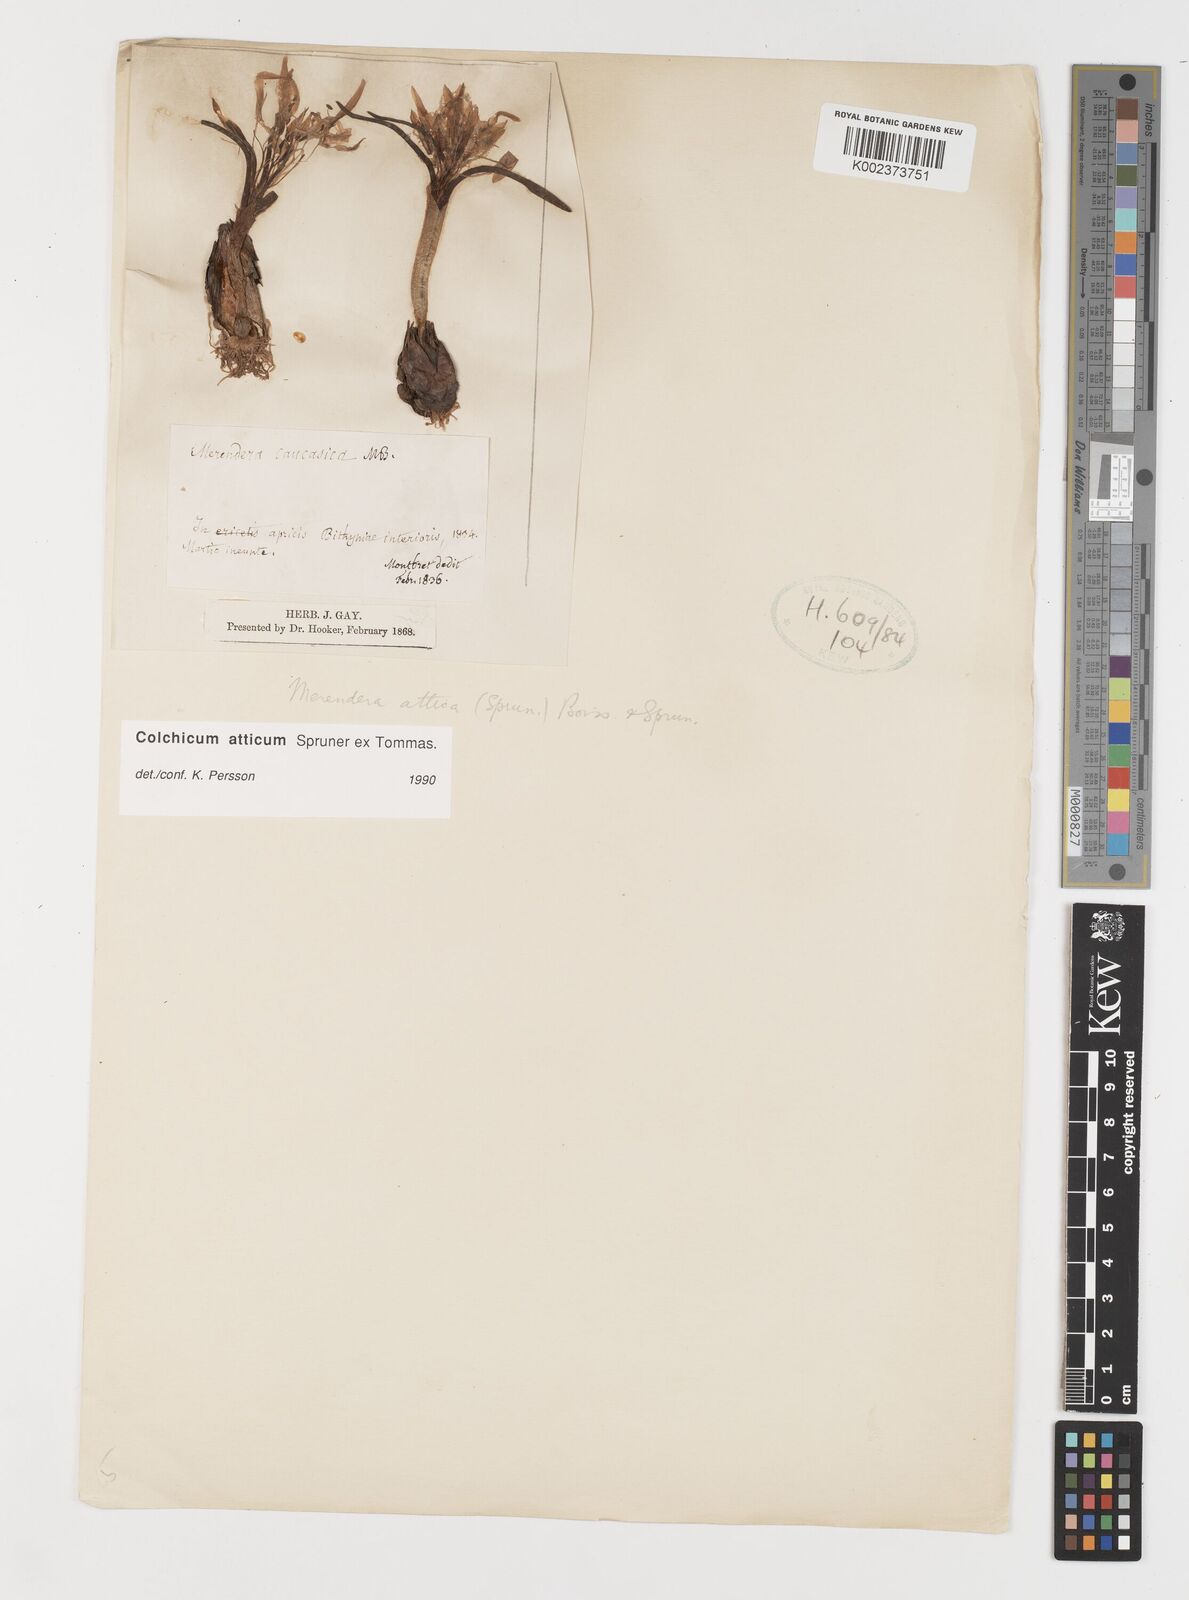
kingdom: Plantae
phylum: Tracheophyta
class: Liliopsida
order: Liliales
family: Colchicaceae
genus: Colchicum
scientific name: Colchicum atticum
